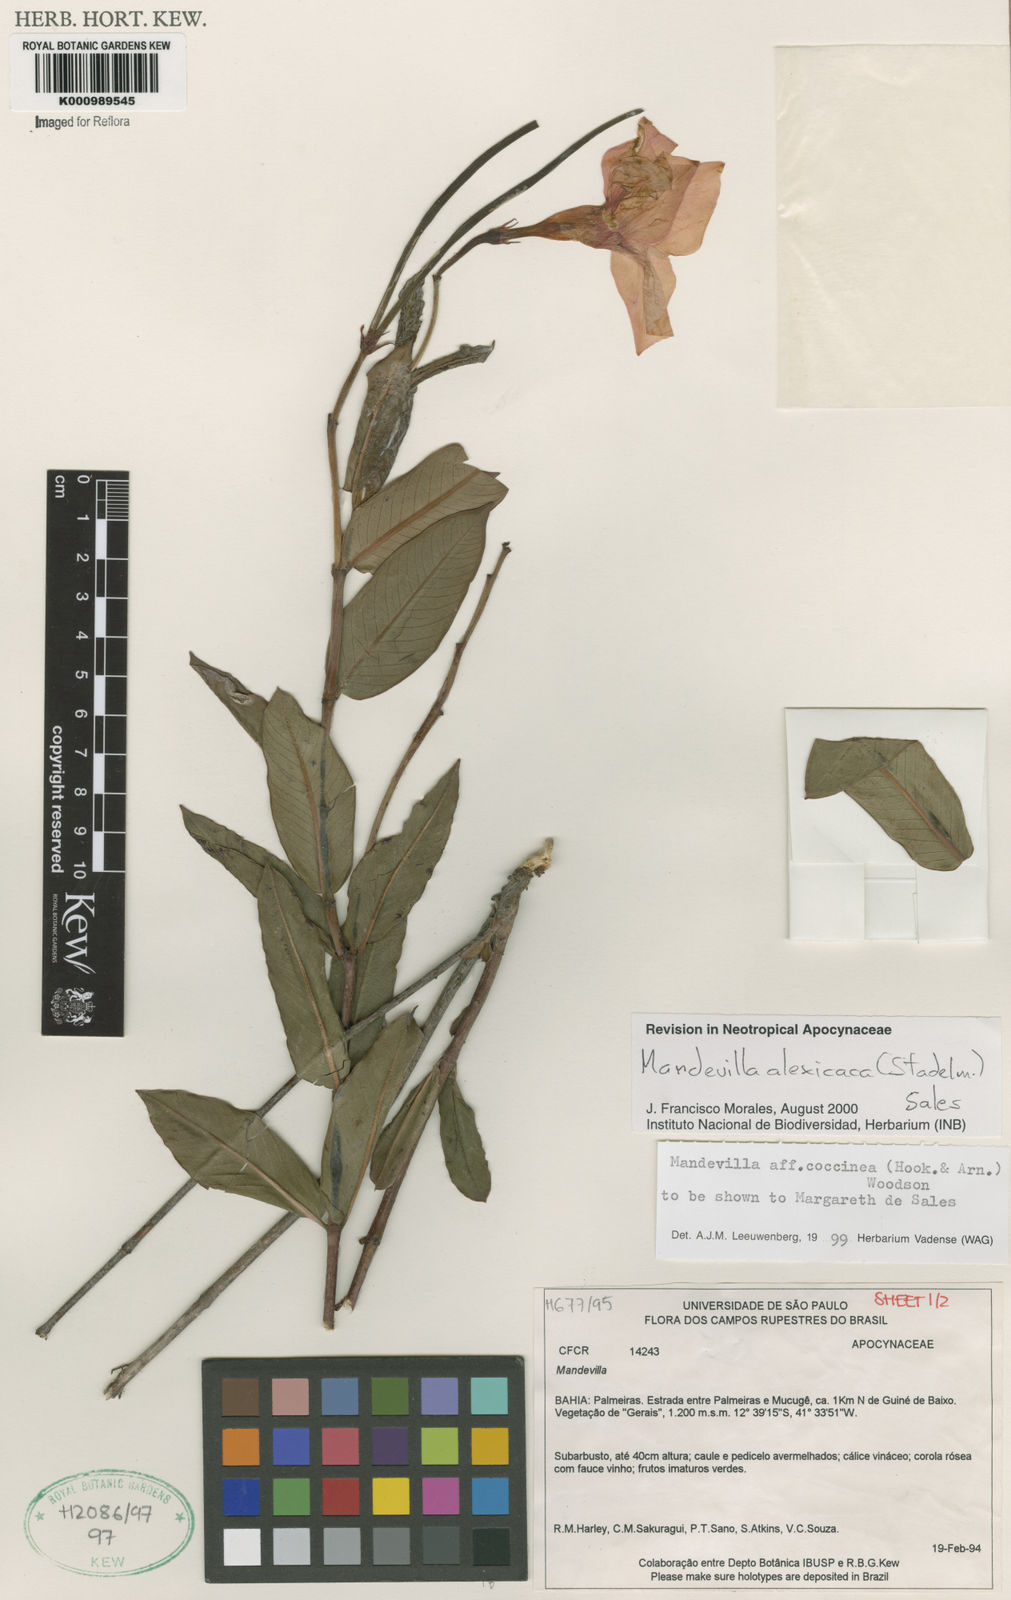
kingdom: Plantae
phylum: Tracheophyta
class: Magnoliopsida
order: Gentianales
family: Apocynaceae
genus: Mandevilla
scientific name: Mandevilla
